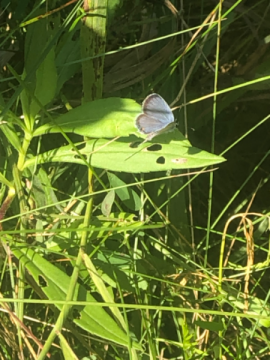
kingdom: Animalia
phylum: Arthropoda
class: Insecta
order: Lepidoptera
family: Lycaenidae
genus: Elkalyce
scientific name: Elkalyce comyntas
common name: Eastern Tailed-Blue
